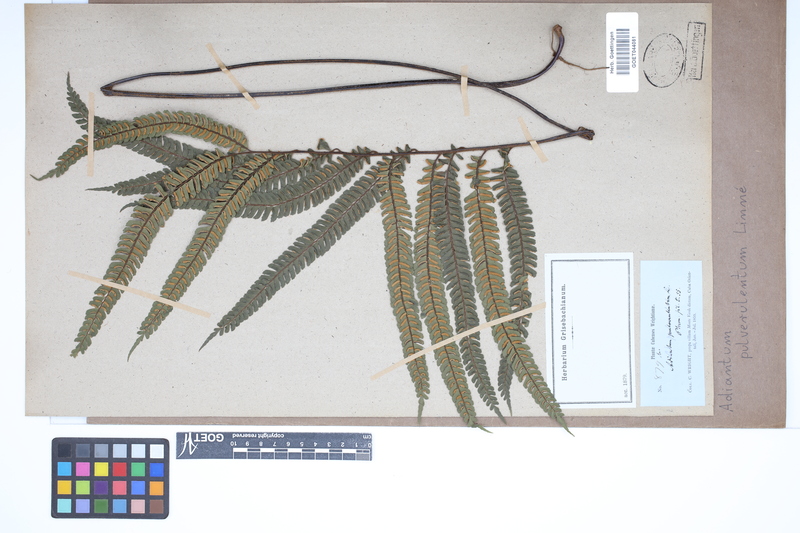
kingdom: Plantae
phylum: Tracheophyta
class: Polypodiopsida
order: Polypodiales
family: Pteridaceae
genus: Adiantum
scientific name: Adiantum pulverulentum
